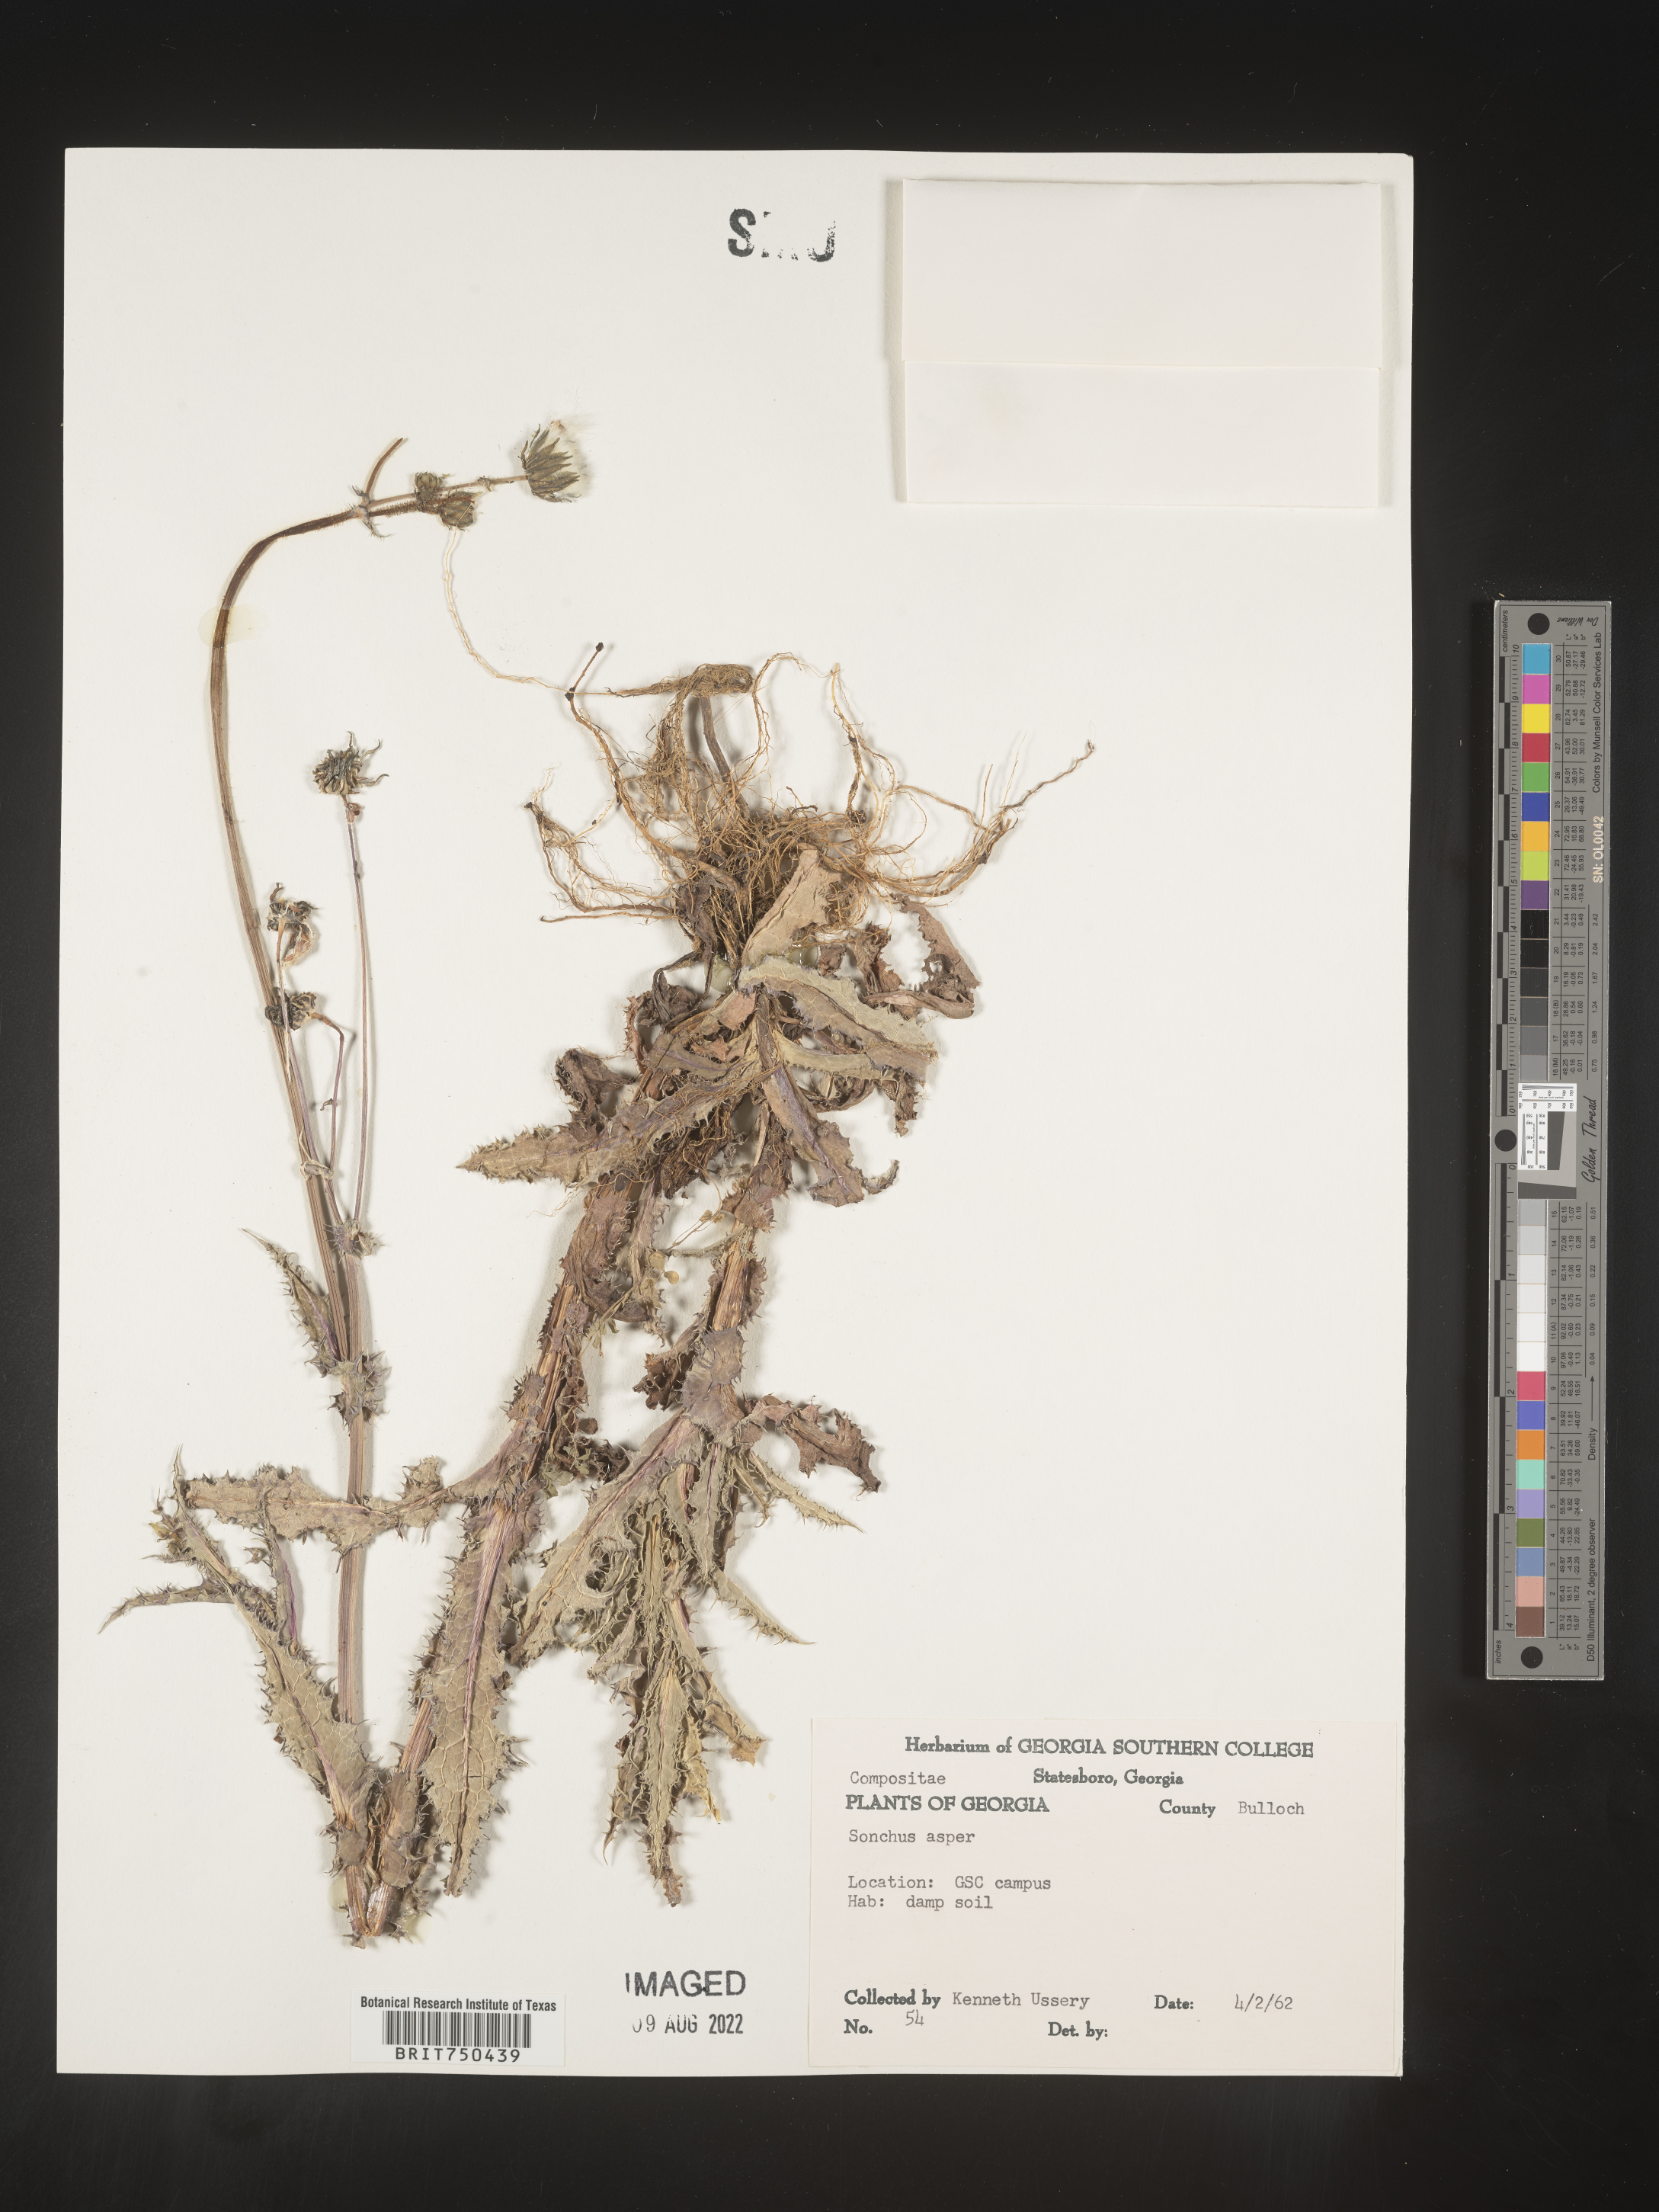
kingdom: Plantae
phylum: Tracheophyta
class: Magnoliopsida
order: Asterales
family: Asteraceae
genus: Sonchus
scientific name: Sonchus asper
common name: Prickly sow-thistle
